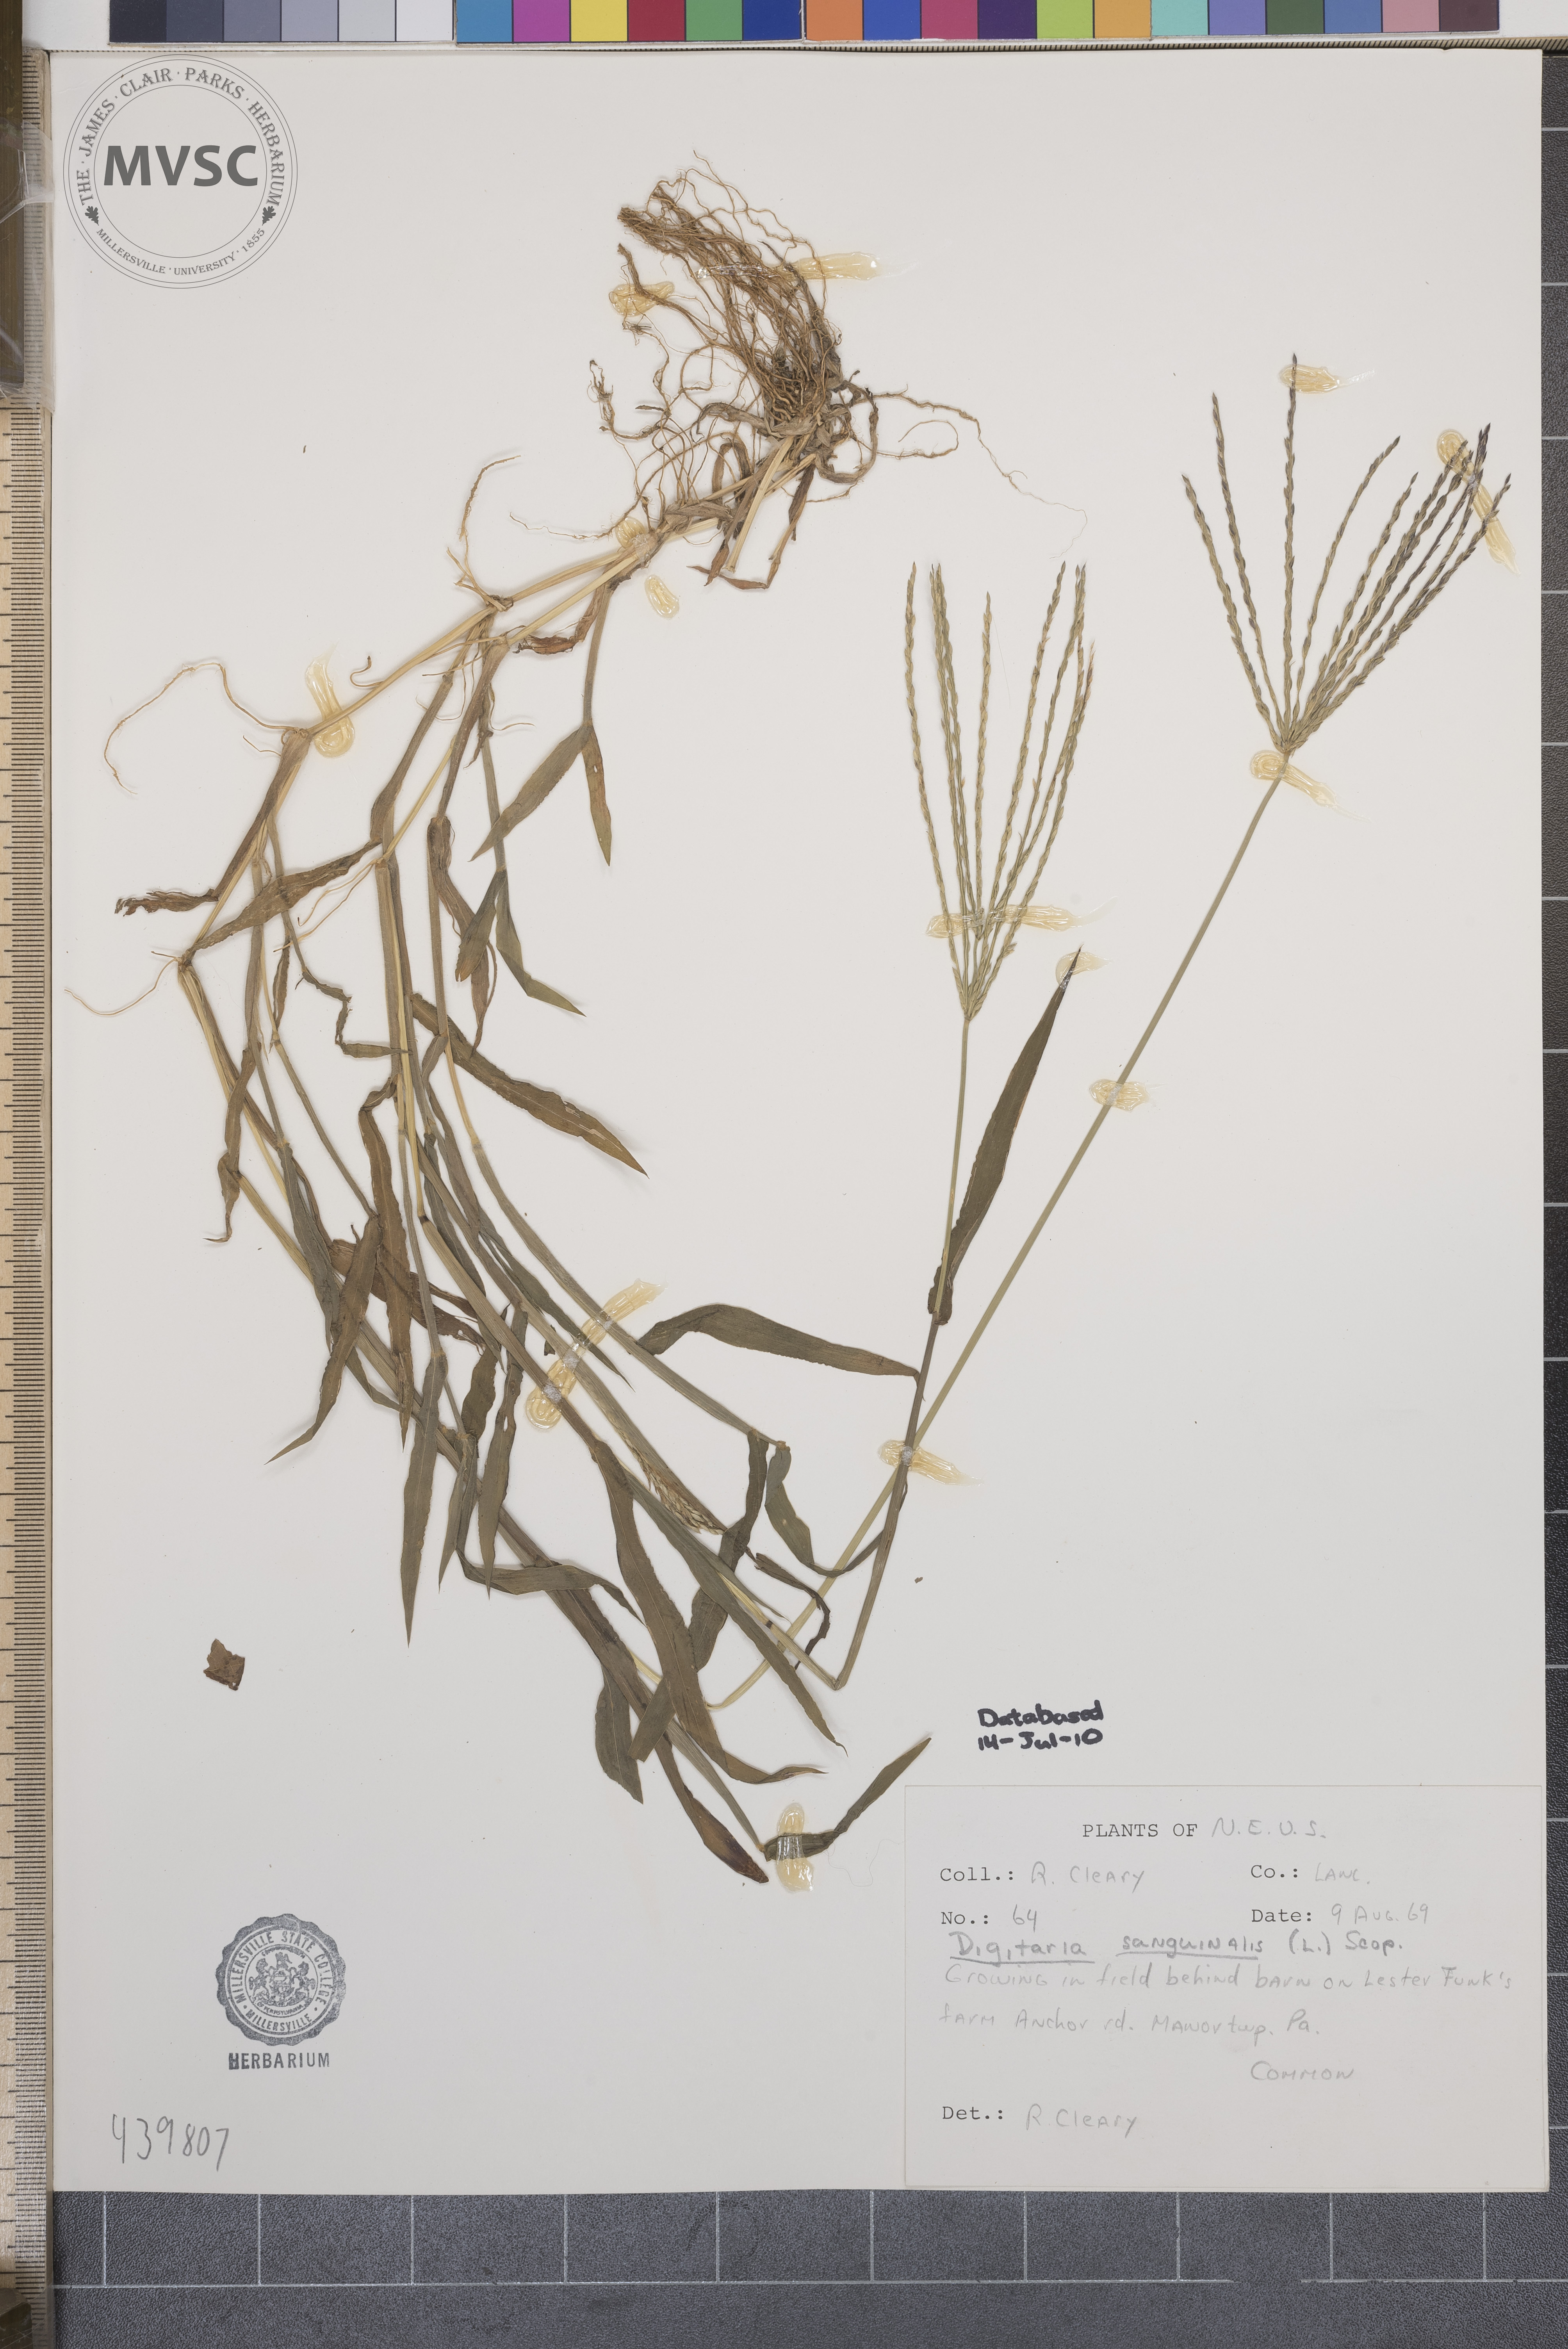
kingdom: Plantae
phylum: Tracheophyta
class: Liliopsida
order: Poales
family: Poaceae
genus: Digitaria
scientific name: Digitaria sanguinalis
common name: Hairy crabgrass
